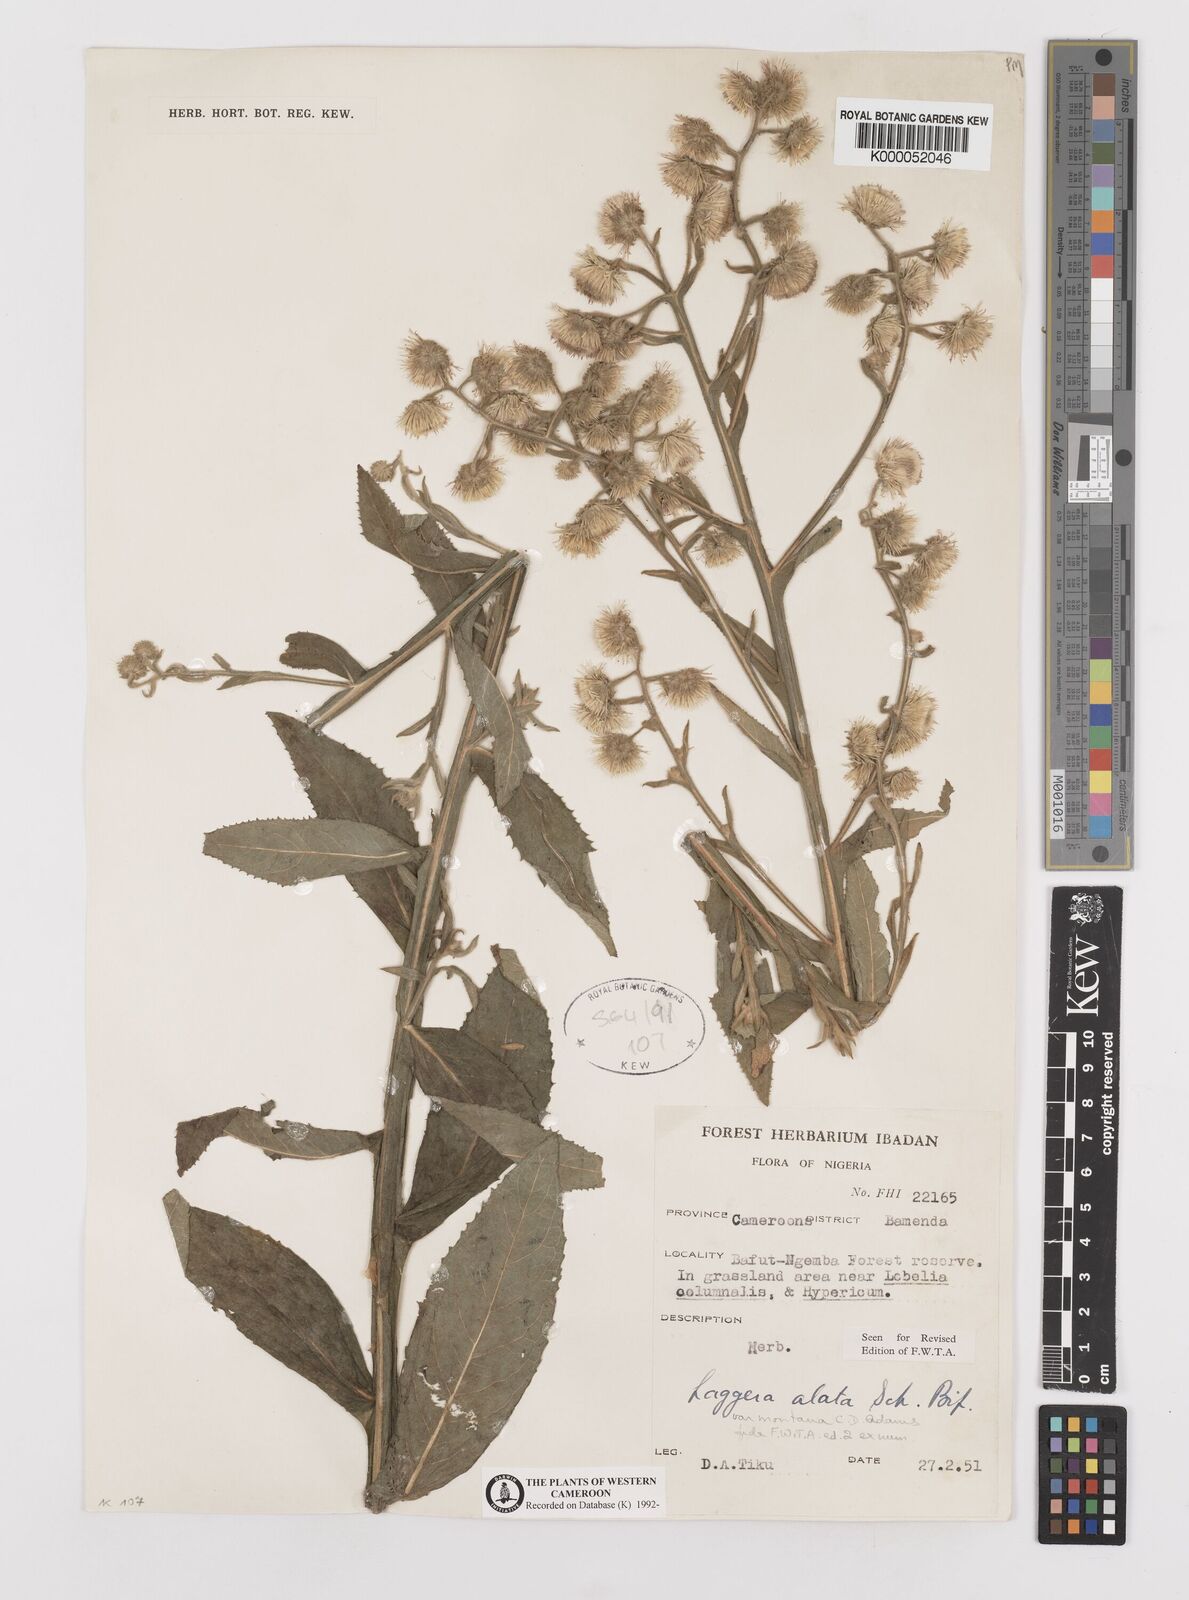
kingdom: Plantae
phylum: Tracheophyta
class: Magnoliopsida
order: Asterales
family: Asteraceae
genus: Laggera
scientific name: Laggera crispata
